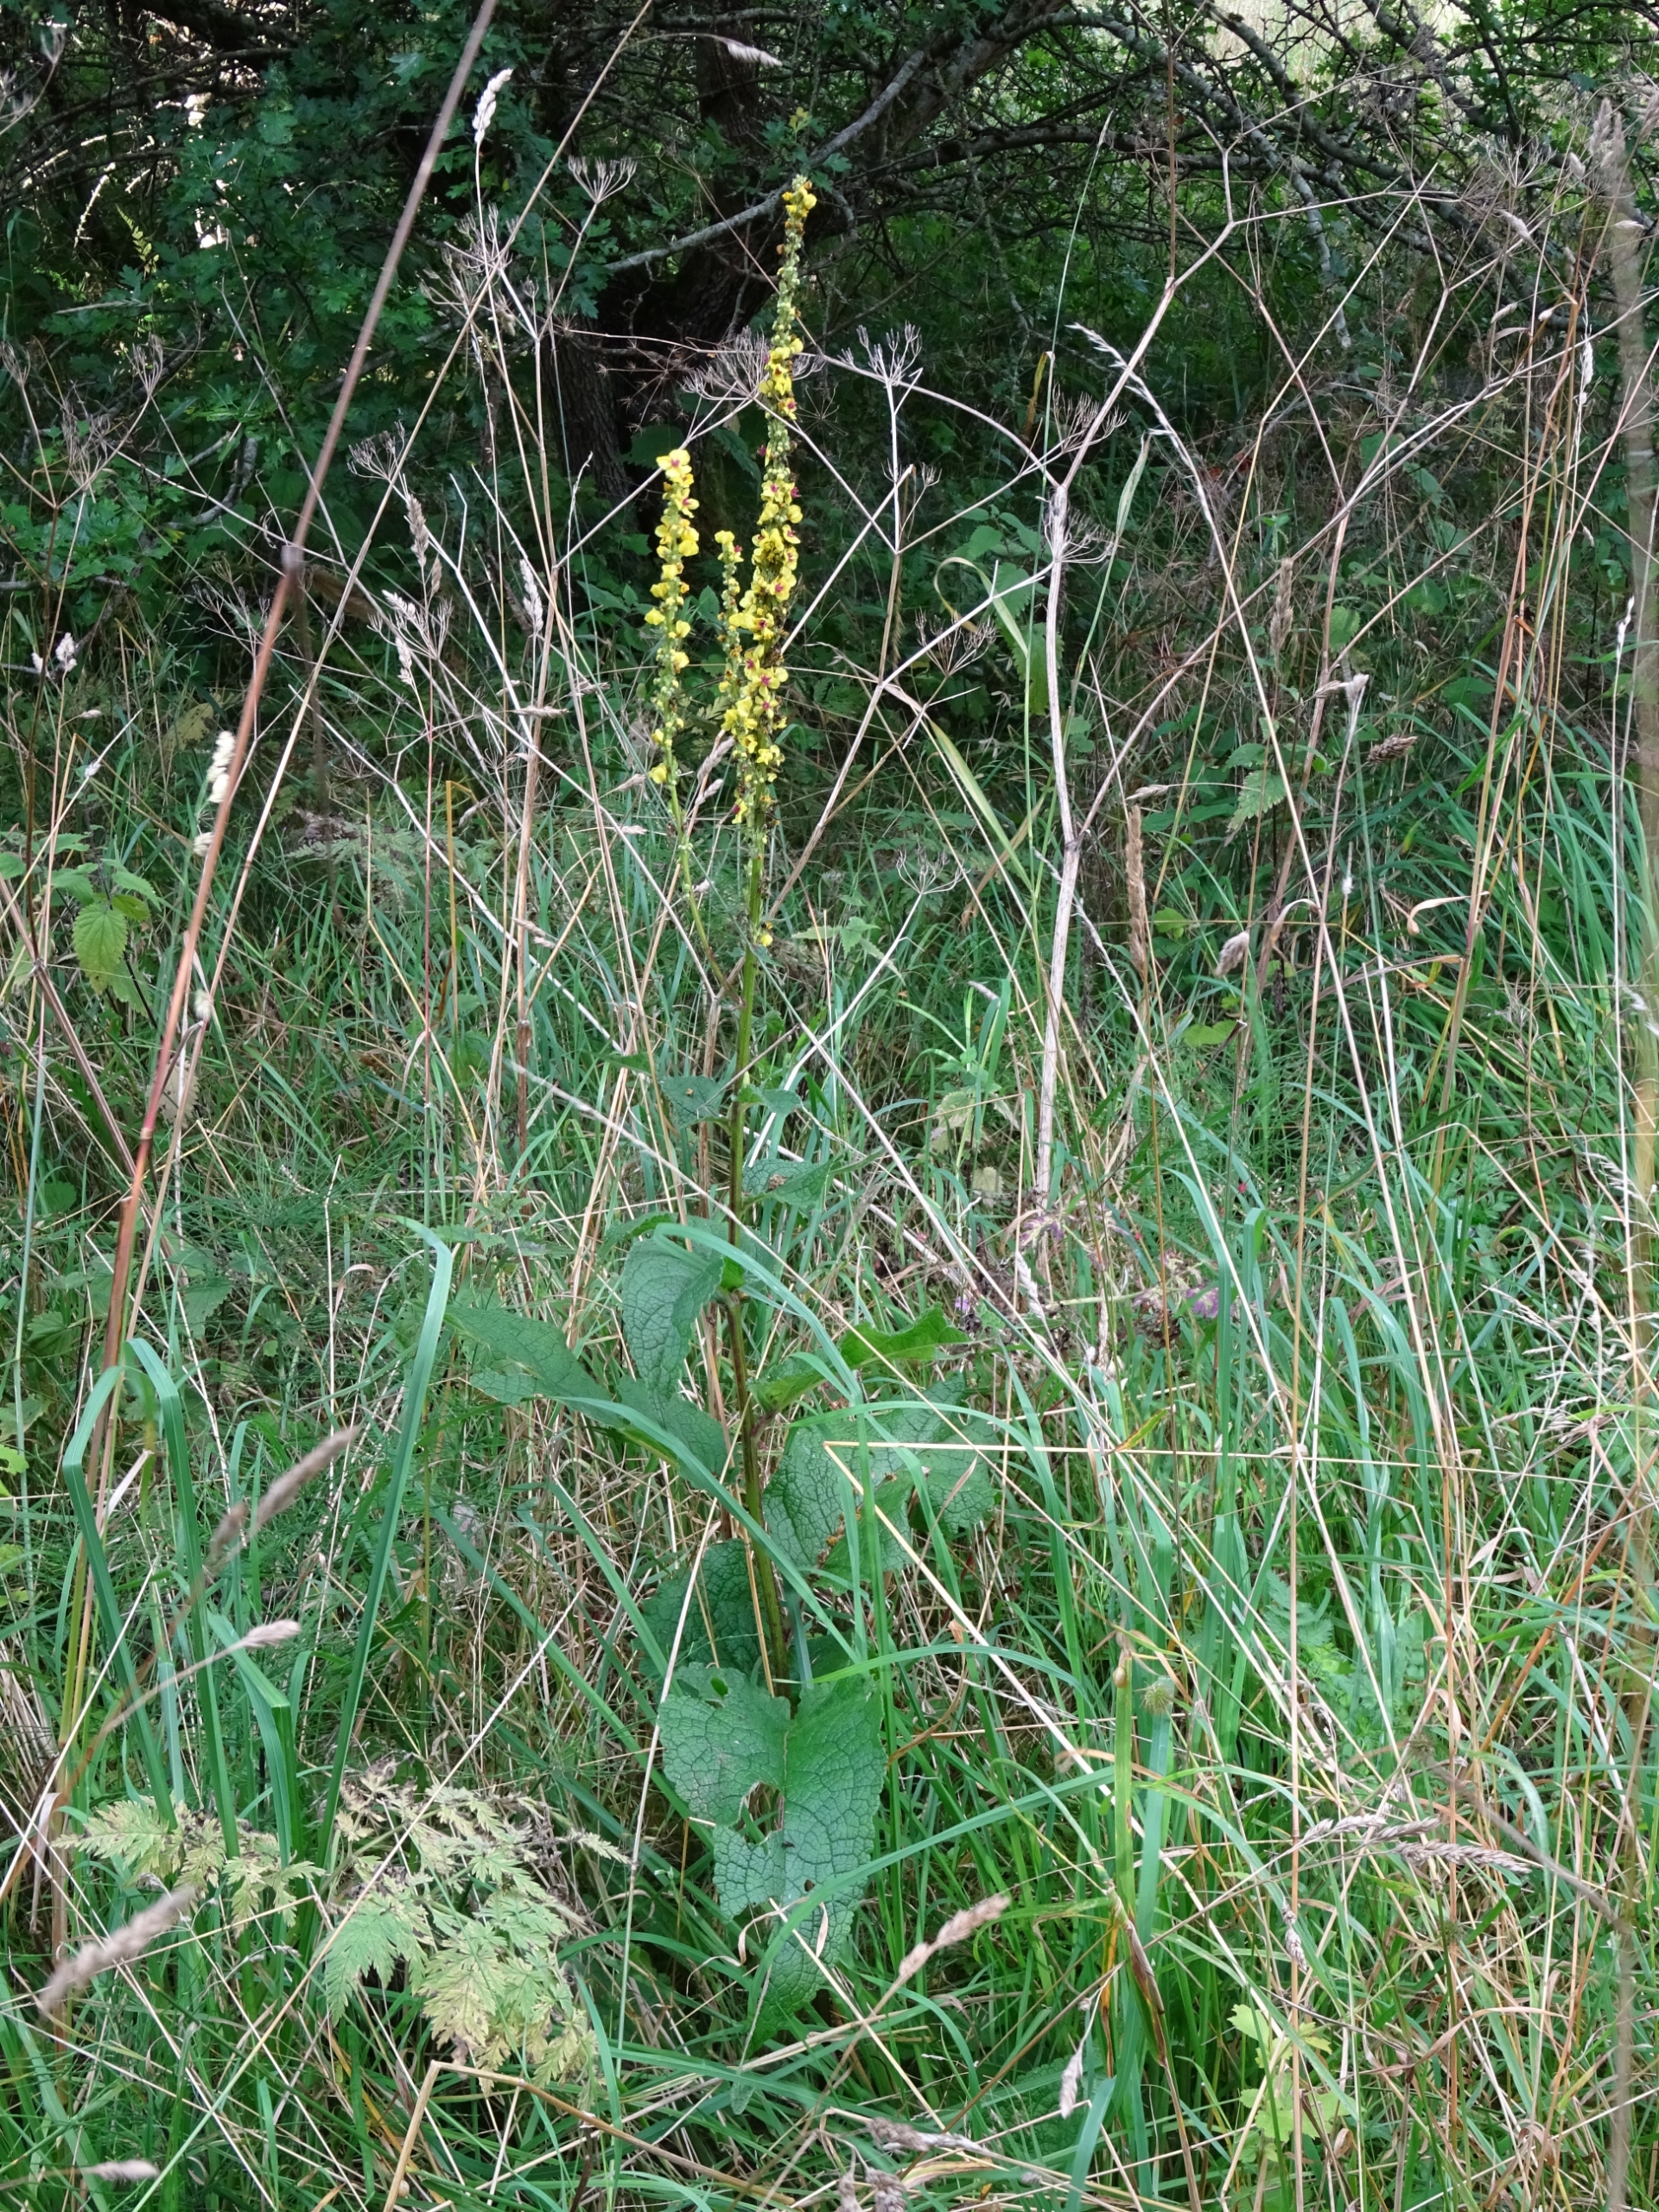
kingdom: Plantae
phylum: Tracheophyta
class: Magnoliopsida
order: Lamiales
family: Scrophulariaceae
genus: Verbascum
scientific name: Verbascum nigrum
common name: Mørk kongelys
